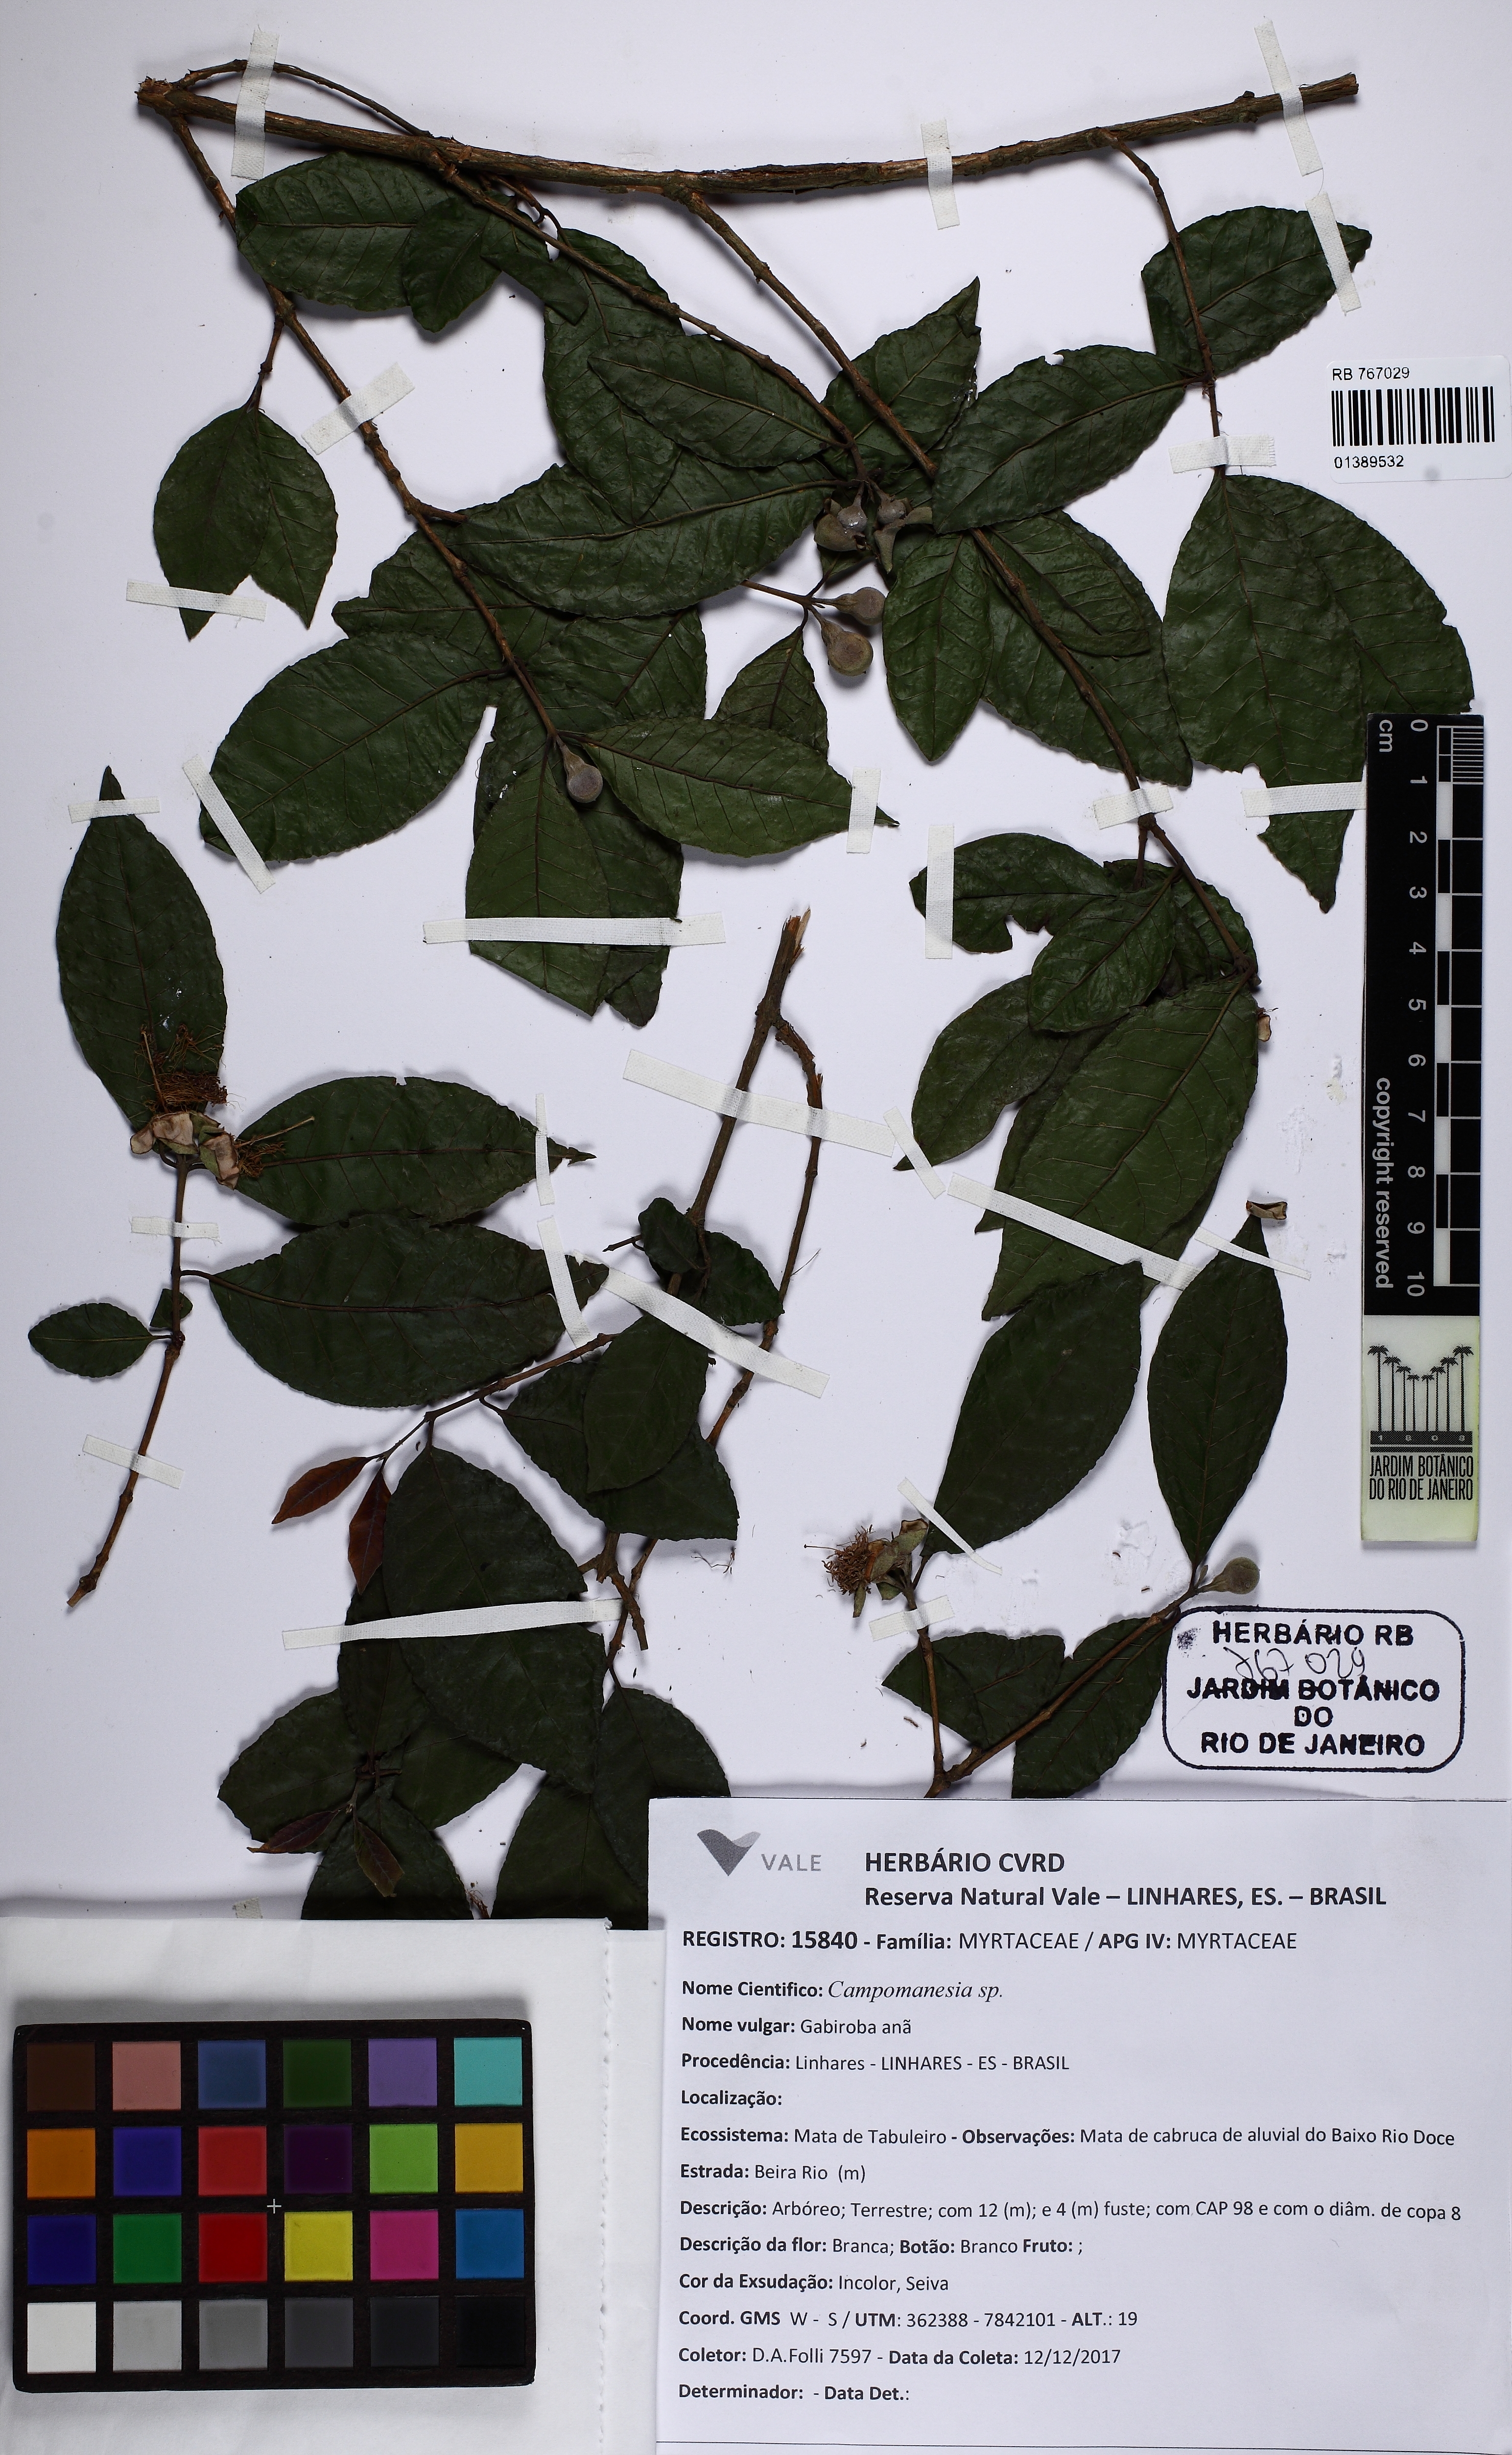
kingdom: Plantae
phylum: Tracheophyta
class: Magnoliopsida
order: Myrtales
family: Myrtaceae
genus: Campomanesia
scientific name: Campomanesia schlechtendaliana
